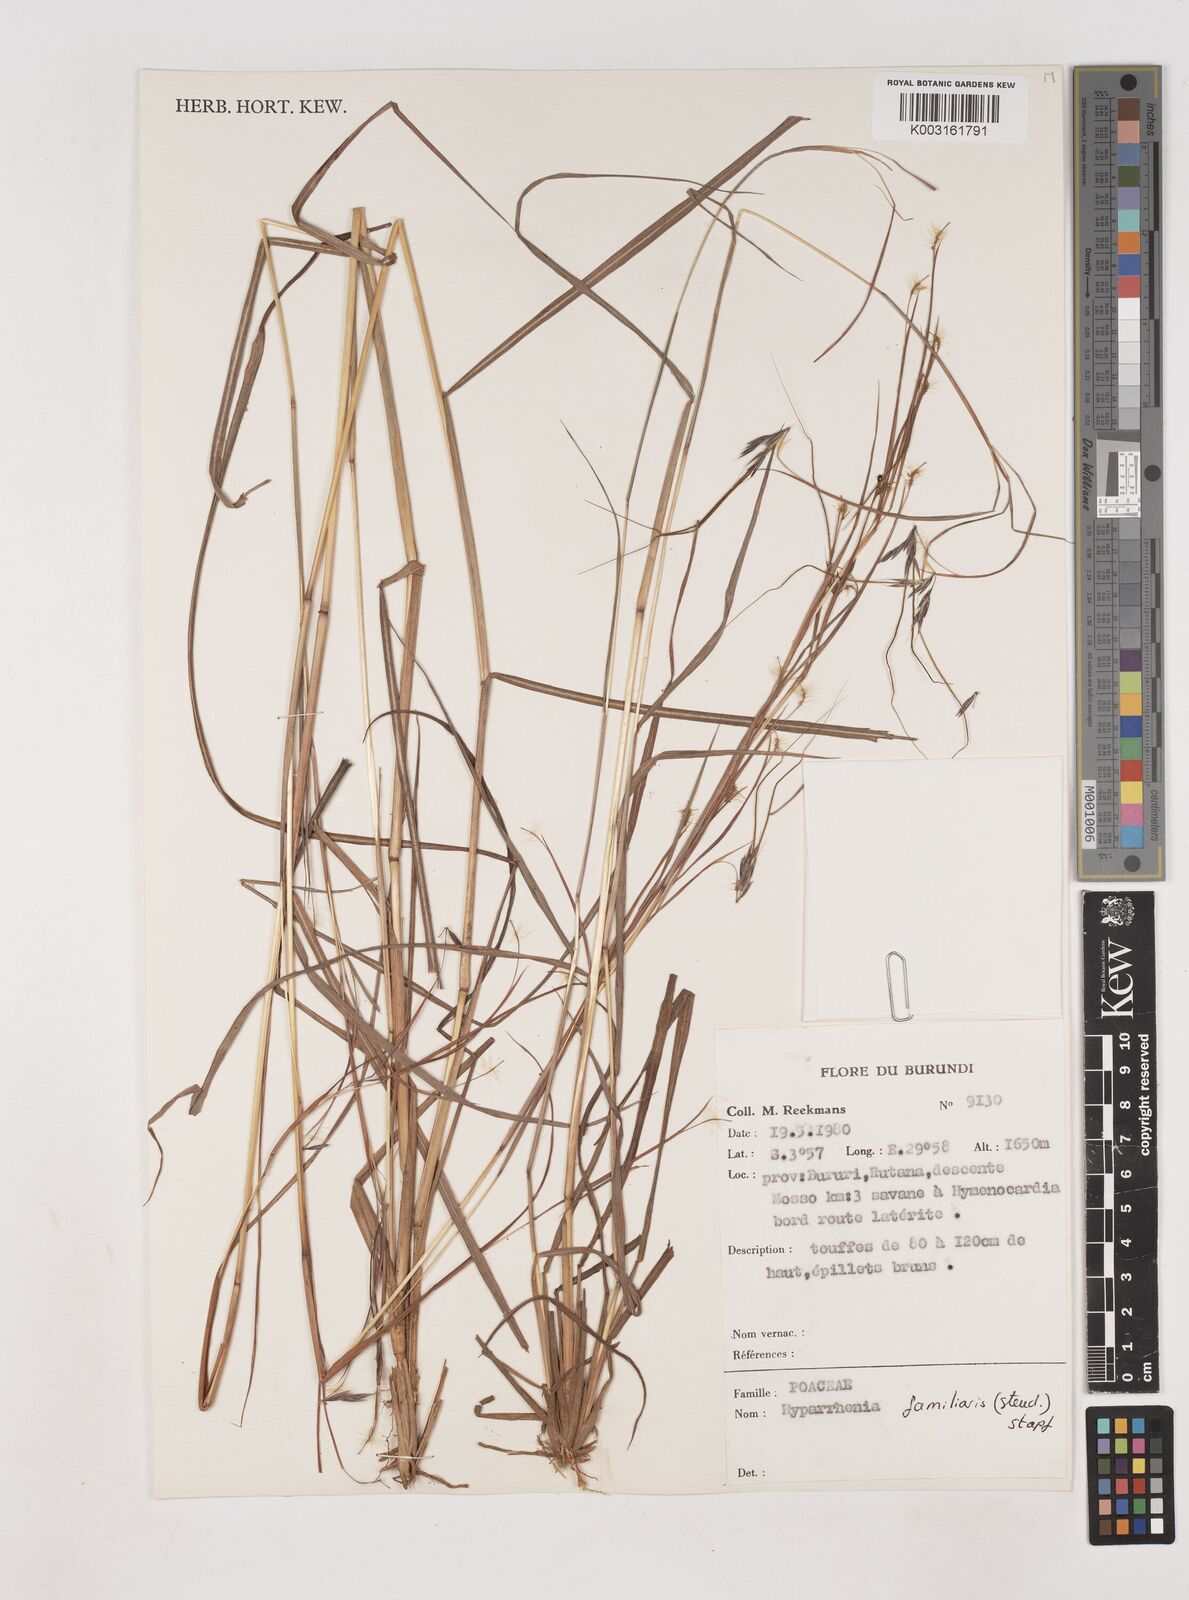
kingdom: Plantae
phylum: Tracheophyta
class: Liliopsida
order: Poales
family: Poaceae
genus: Hyparrhenia
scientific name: Hyparrhenia familiaris
